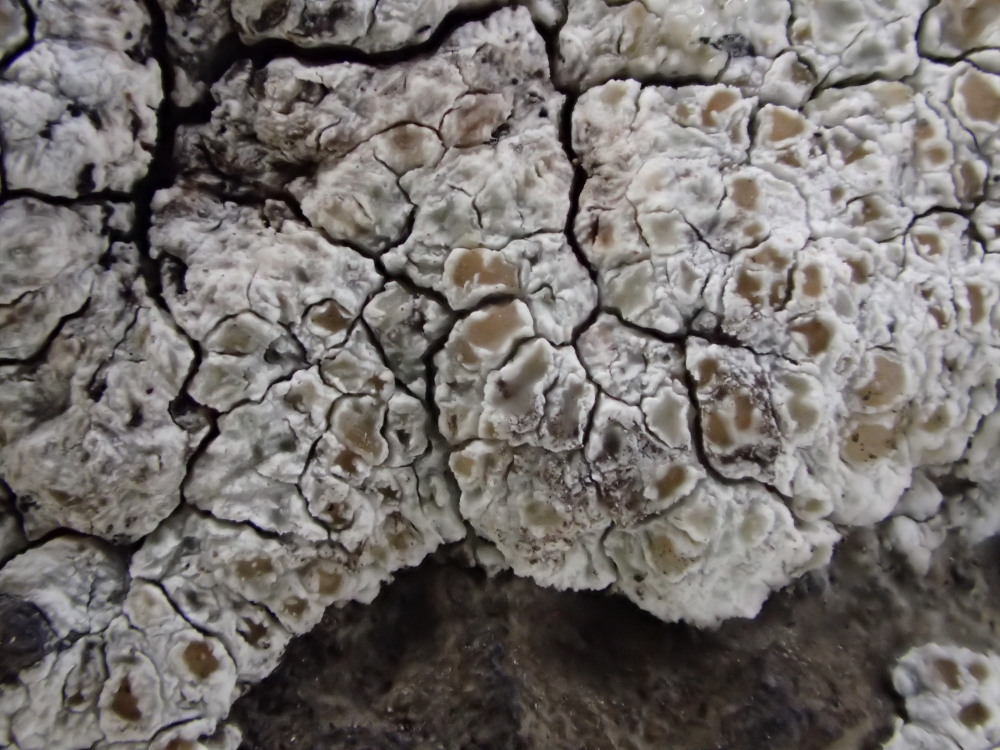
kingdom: Fungi
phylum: Ascomycota
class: Lecanoromycetes
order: Lecanorales
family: Lecanoraceae
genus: Polyozosia
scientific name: Polyozosia albescens
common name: cement-kantskivelav
